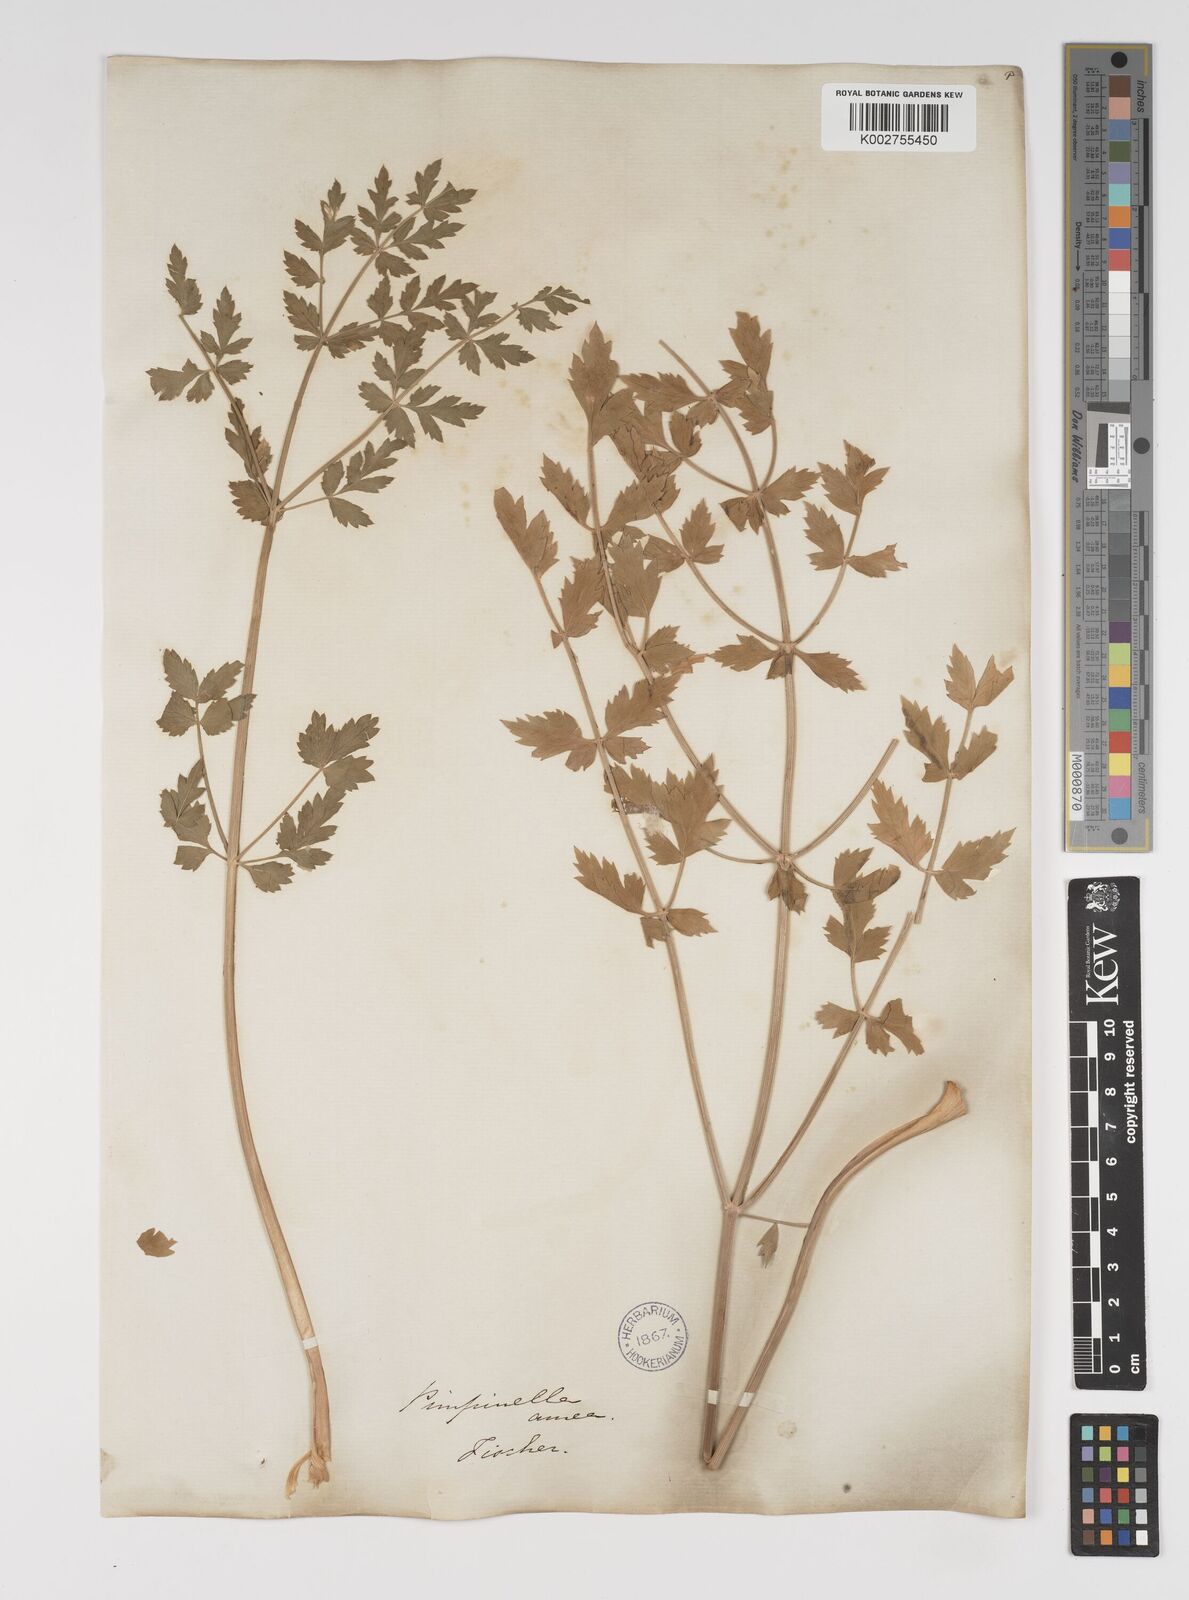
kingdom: Plantae
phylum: Tracheophyta
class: Magnoliopsida
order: Apiales
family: Apiaceae
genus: Pimpinella
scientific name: Pimpinella aurea
